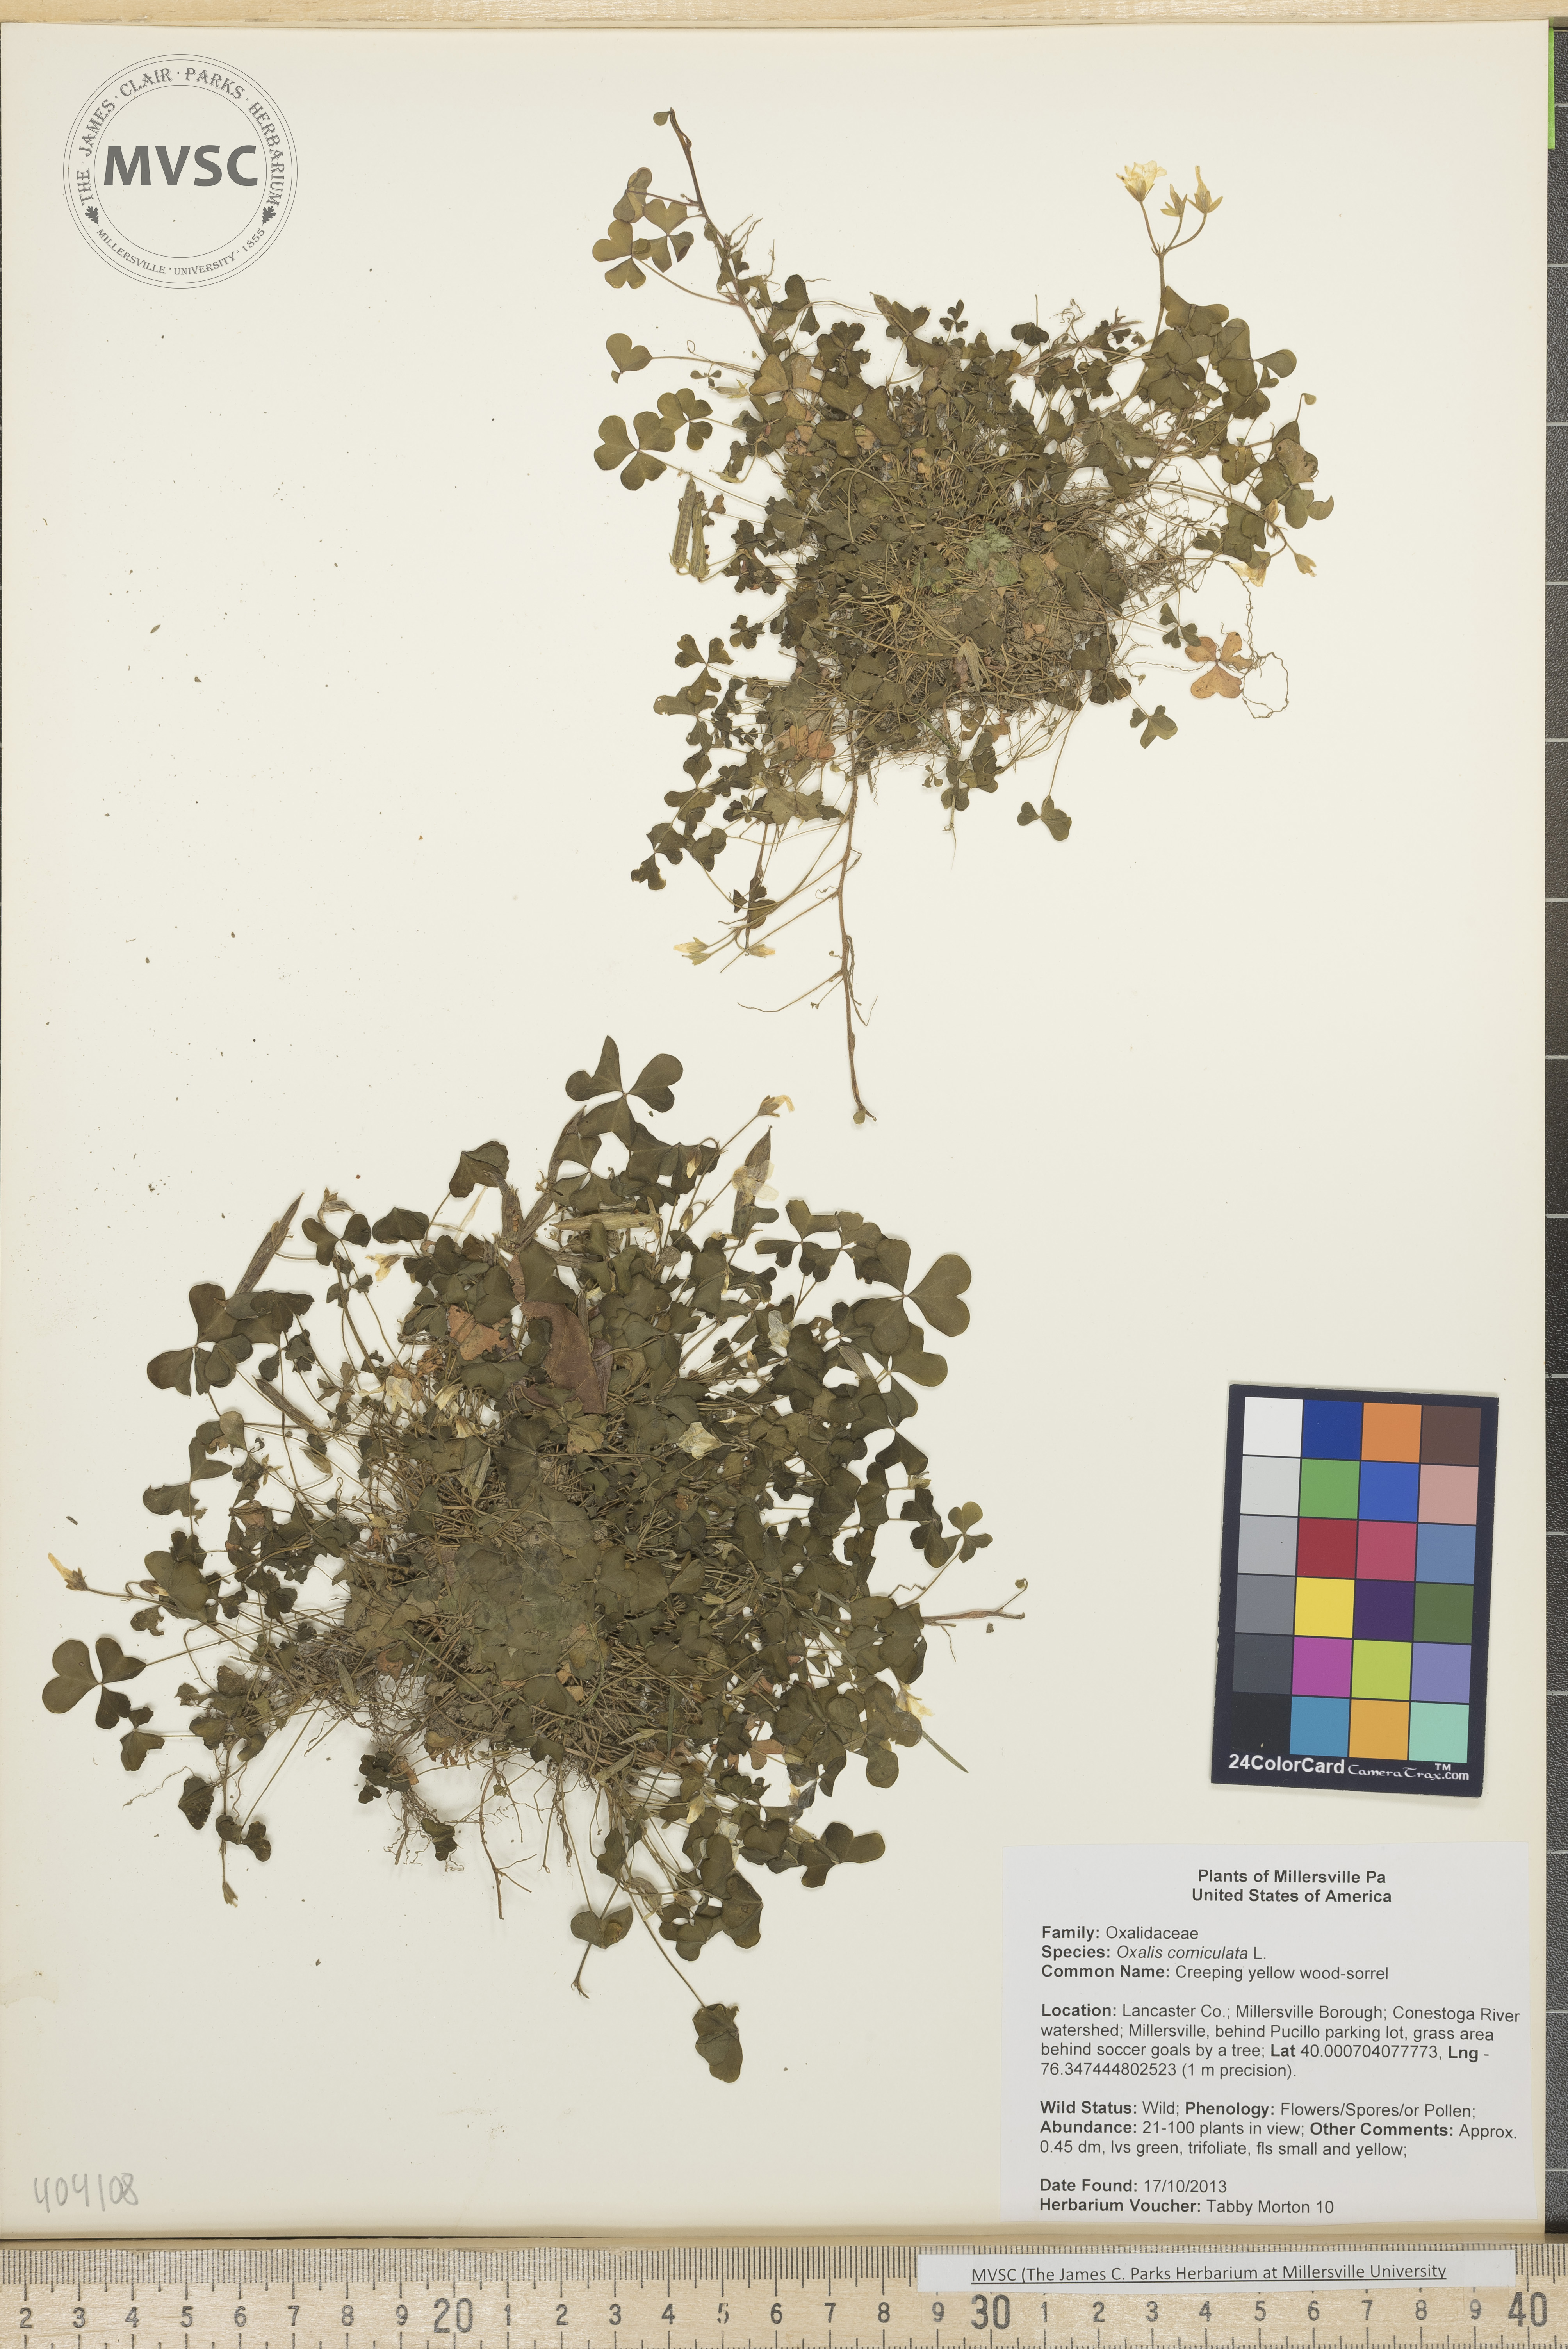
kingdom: Plantae
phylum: Tracheophyta
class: Magnoliopsida
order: Oxalidales
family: Oxalidaceae
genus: Oxalis
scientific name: Oxalis corniculata
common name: Creeping yellow wood-sorrel
